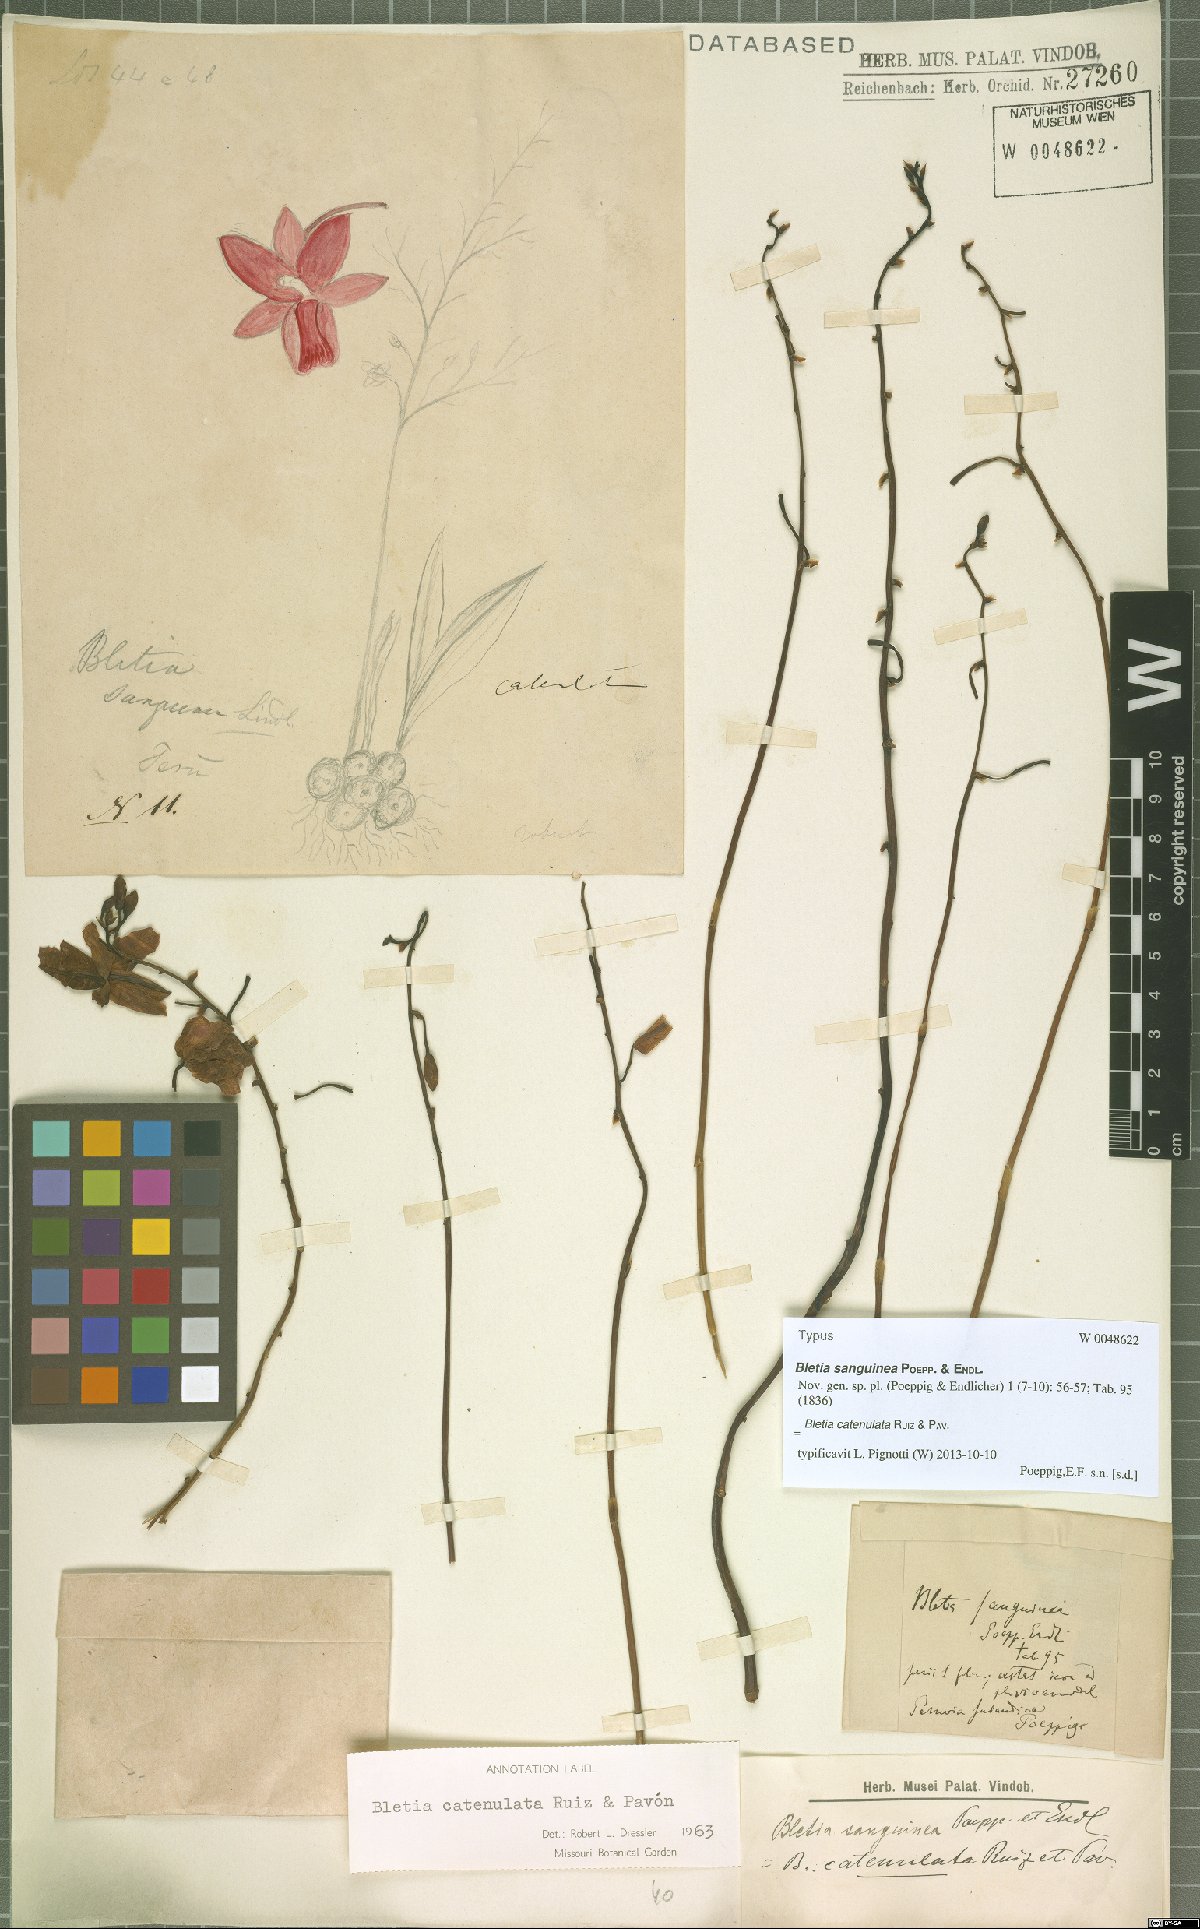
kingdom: Plantae
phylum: Tracheophyta
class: Liliopsida
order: Asparagales
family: Orchidaceae
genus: Bletia
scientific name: Bletia catenulata
